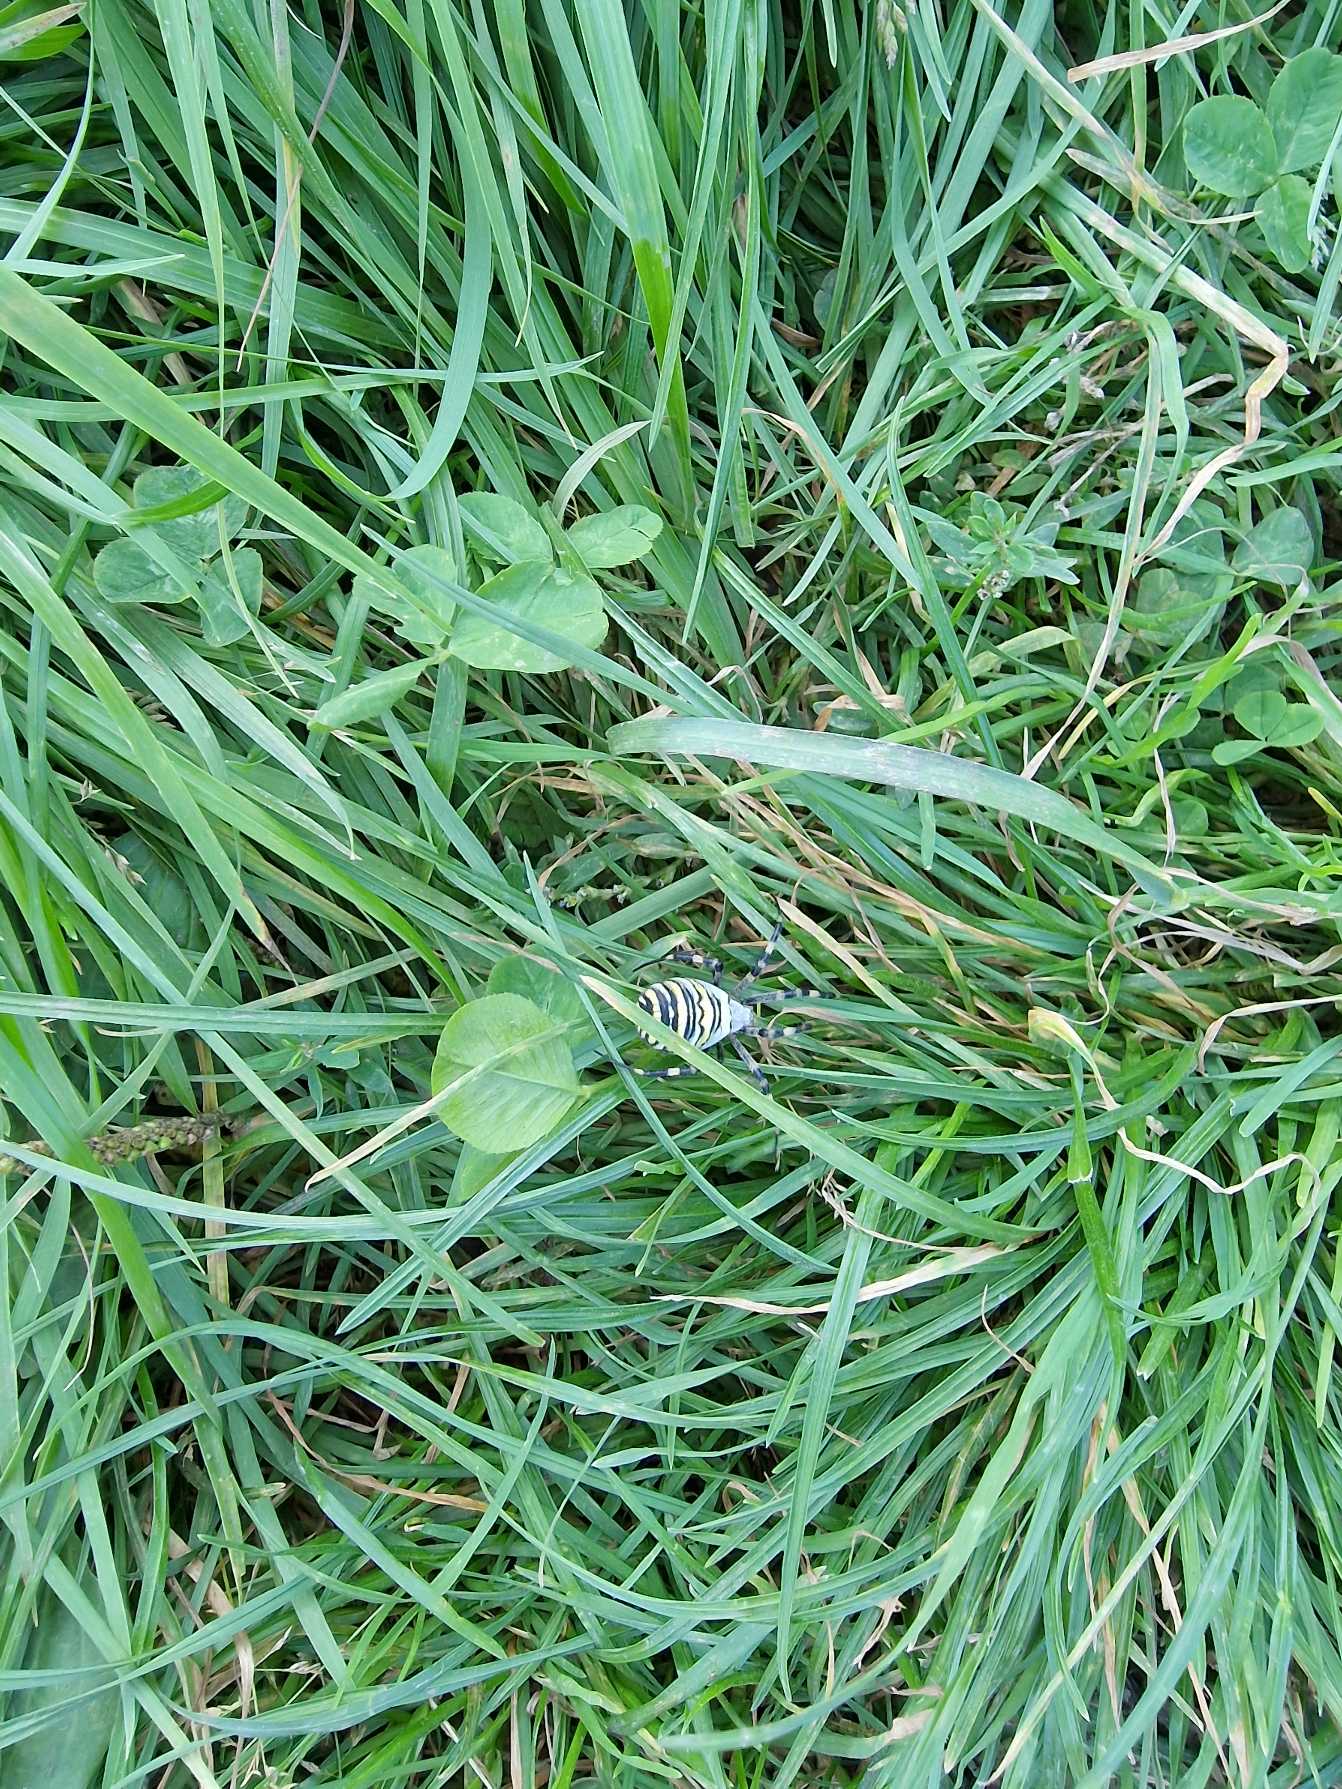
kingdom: Animalia
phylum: Arthropoda
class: Arachnida
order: Araneae
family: Araneidae
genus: Argiope
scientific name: Argiope bruennichi
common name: Hvepseedderkop
